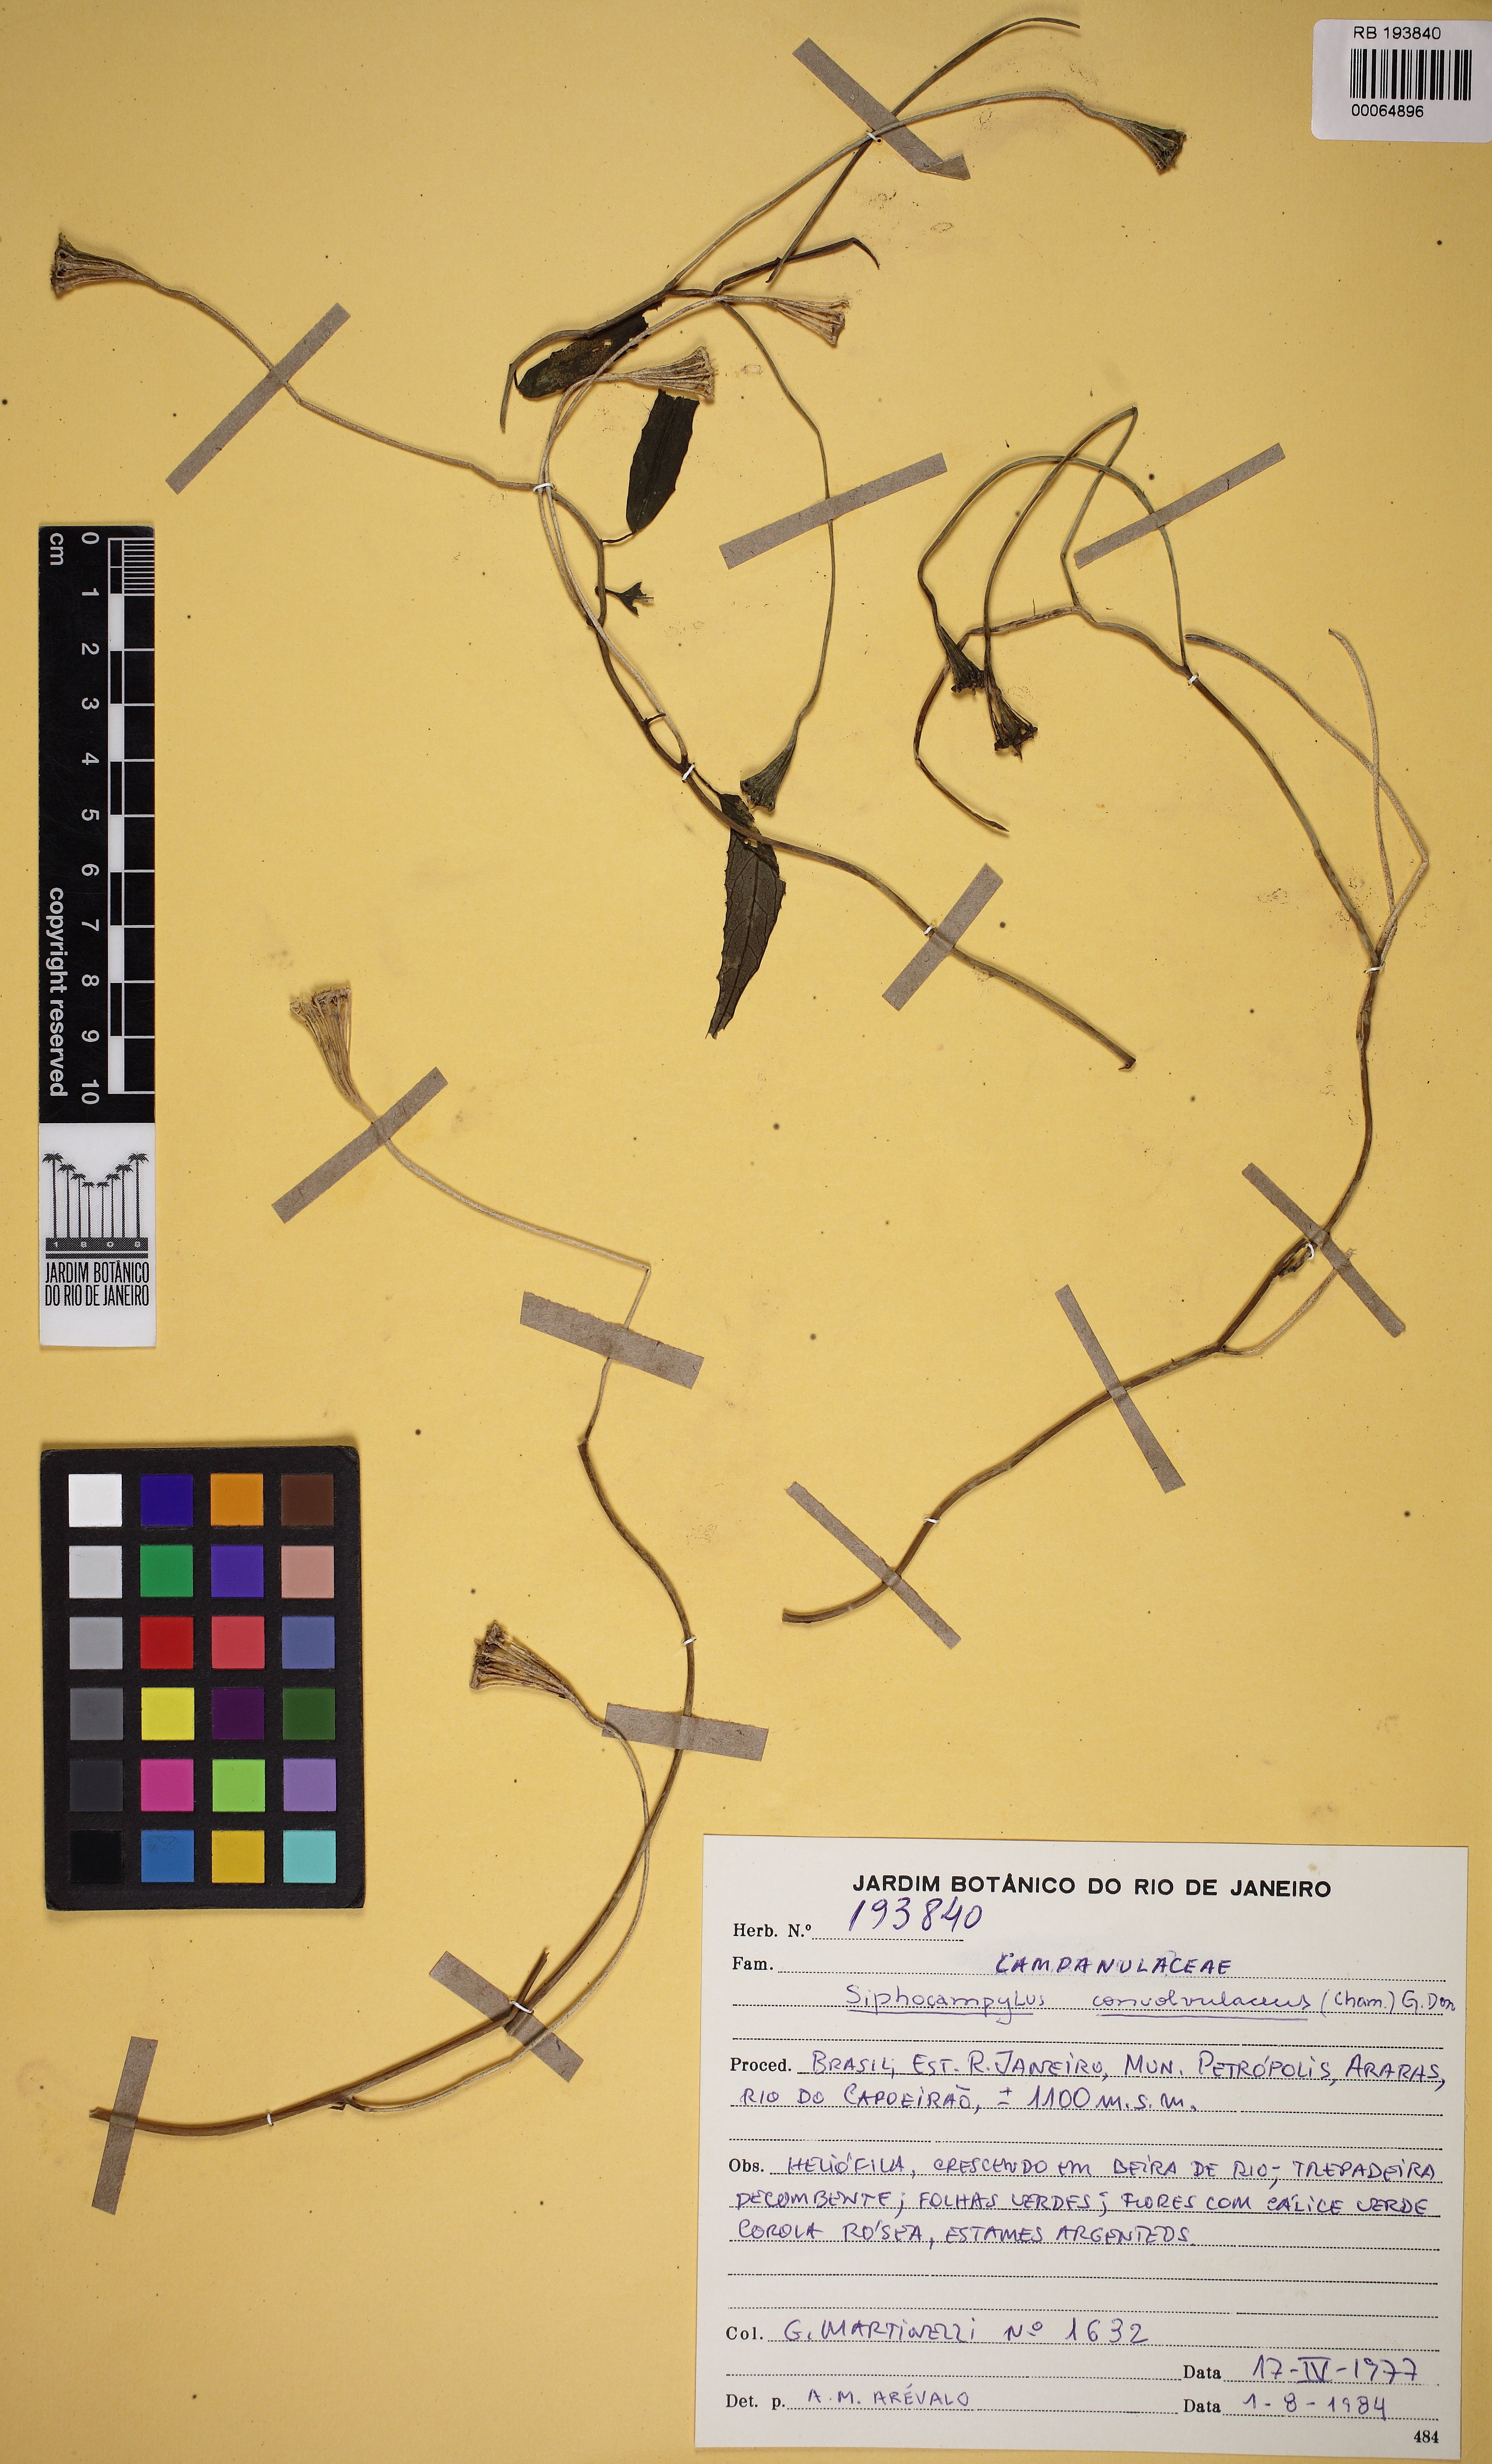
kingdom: Plantae
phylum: Tracheophyta
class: Magnoliopsida
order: Asterales
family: Campanulaceae
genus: Siphocampylus
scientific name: Siphocampylus convolvulaceus
